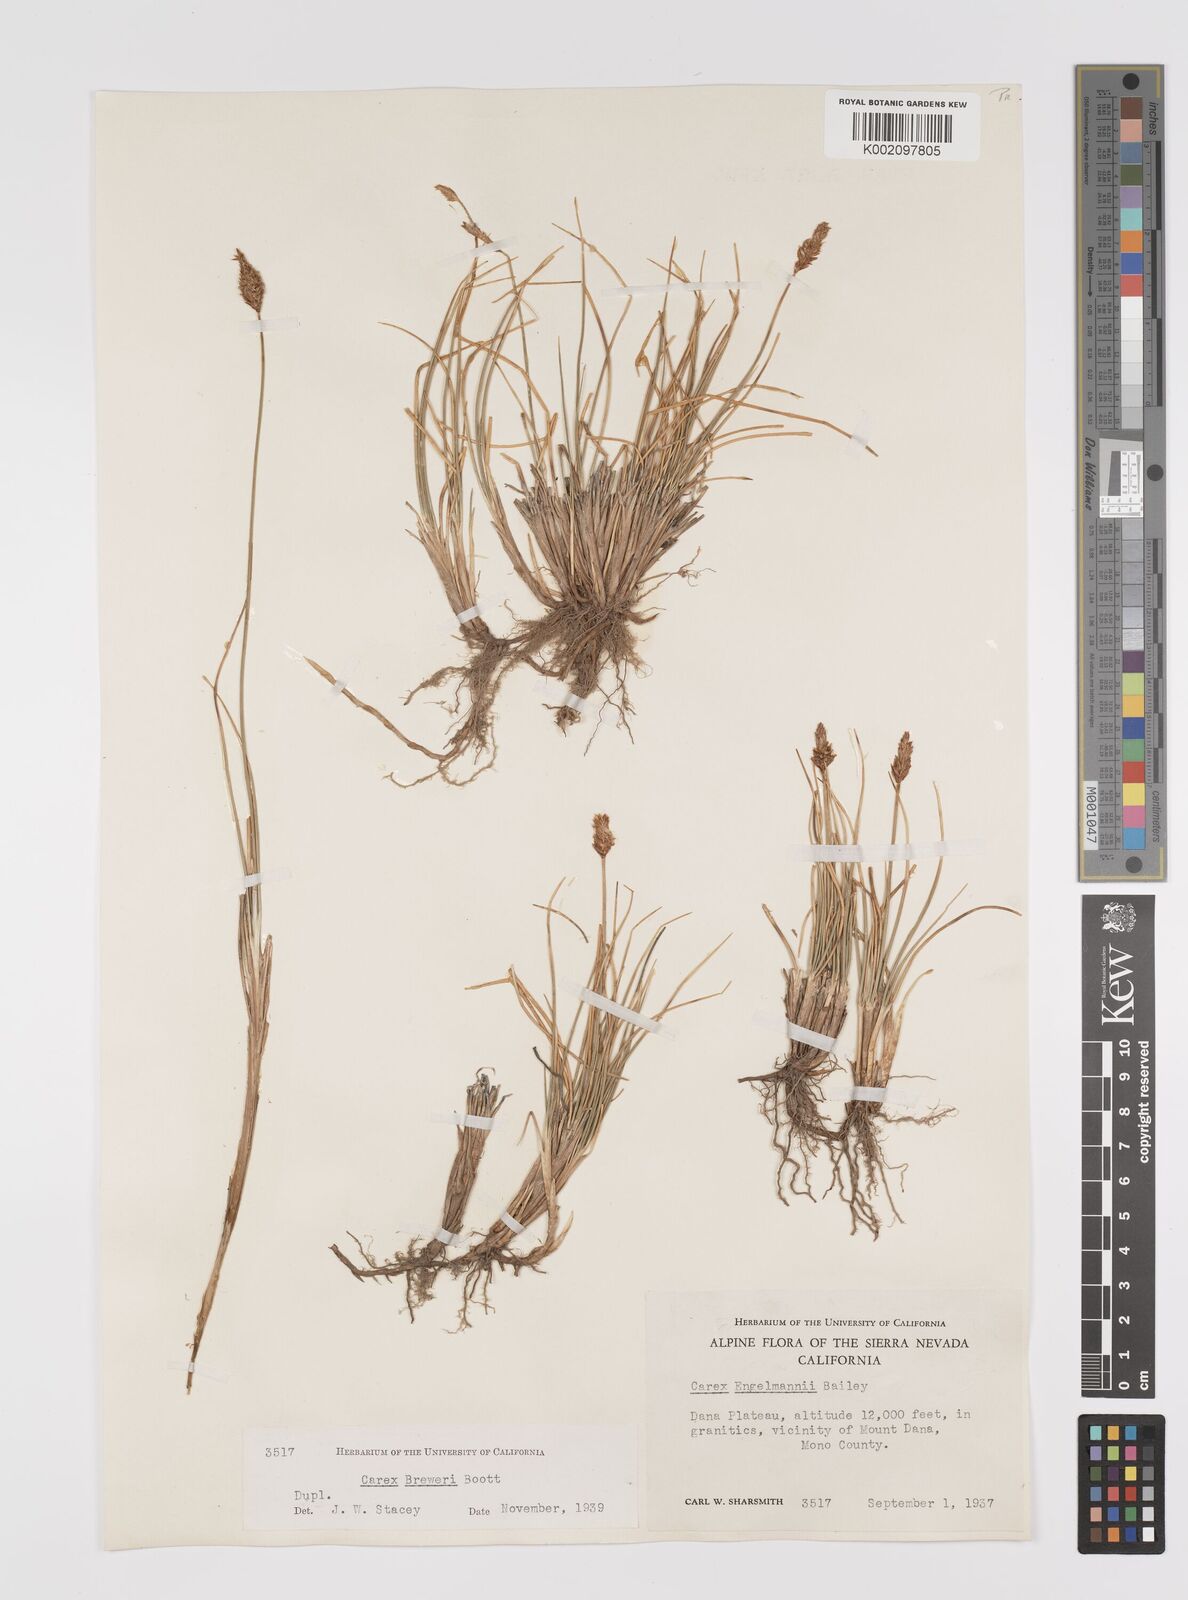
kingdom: Plantae
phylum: Tracheophyta
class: Liliopsida
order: Poales
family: Cyperaceae
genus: Carex
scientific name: Carex engelmannii
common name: Engelmann's sedge
